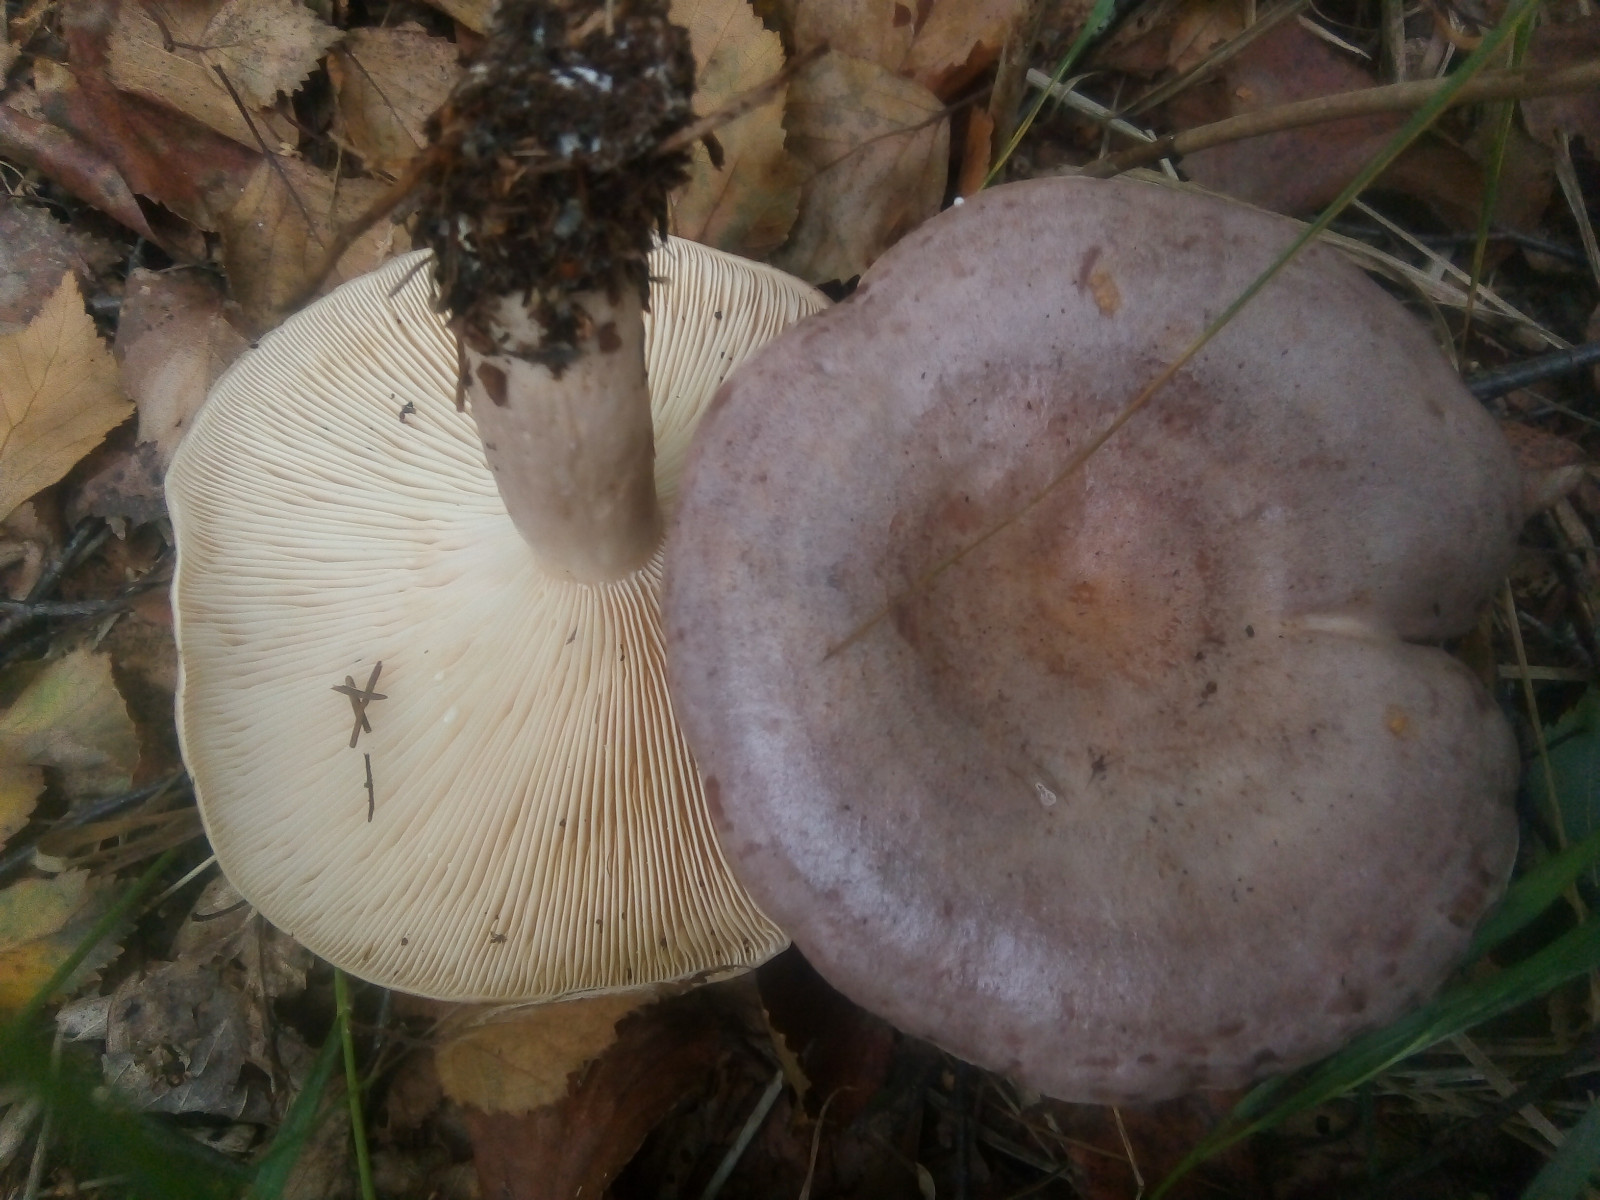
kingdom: Fungi
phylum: Basidiomycota
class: Agaricomycetes
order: Russulales
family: Russulaceae
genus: Lactarius
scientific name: Lactarius vietus
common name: violetgrå mælkehat
